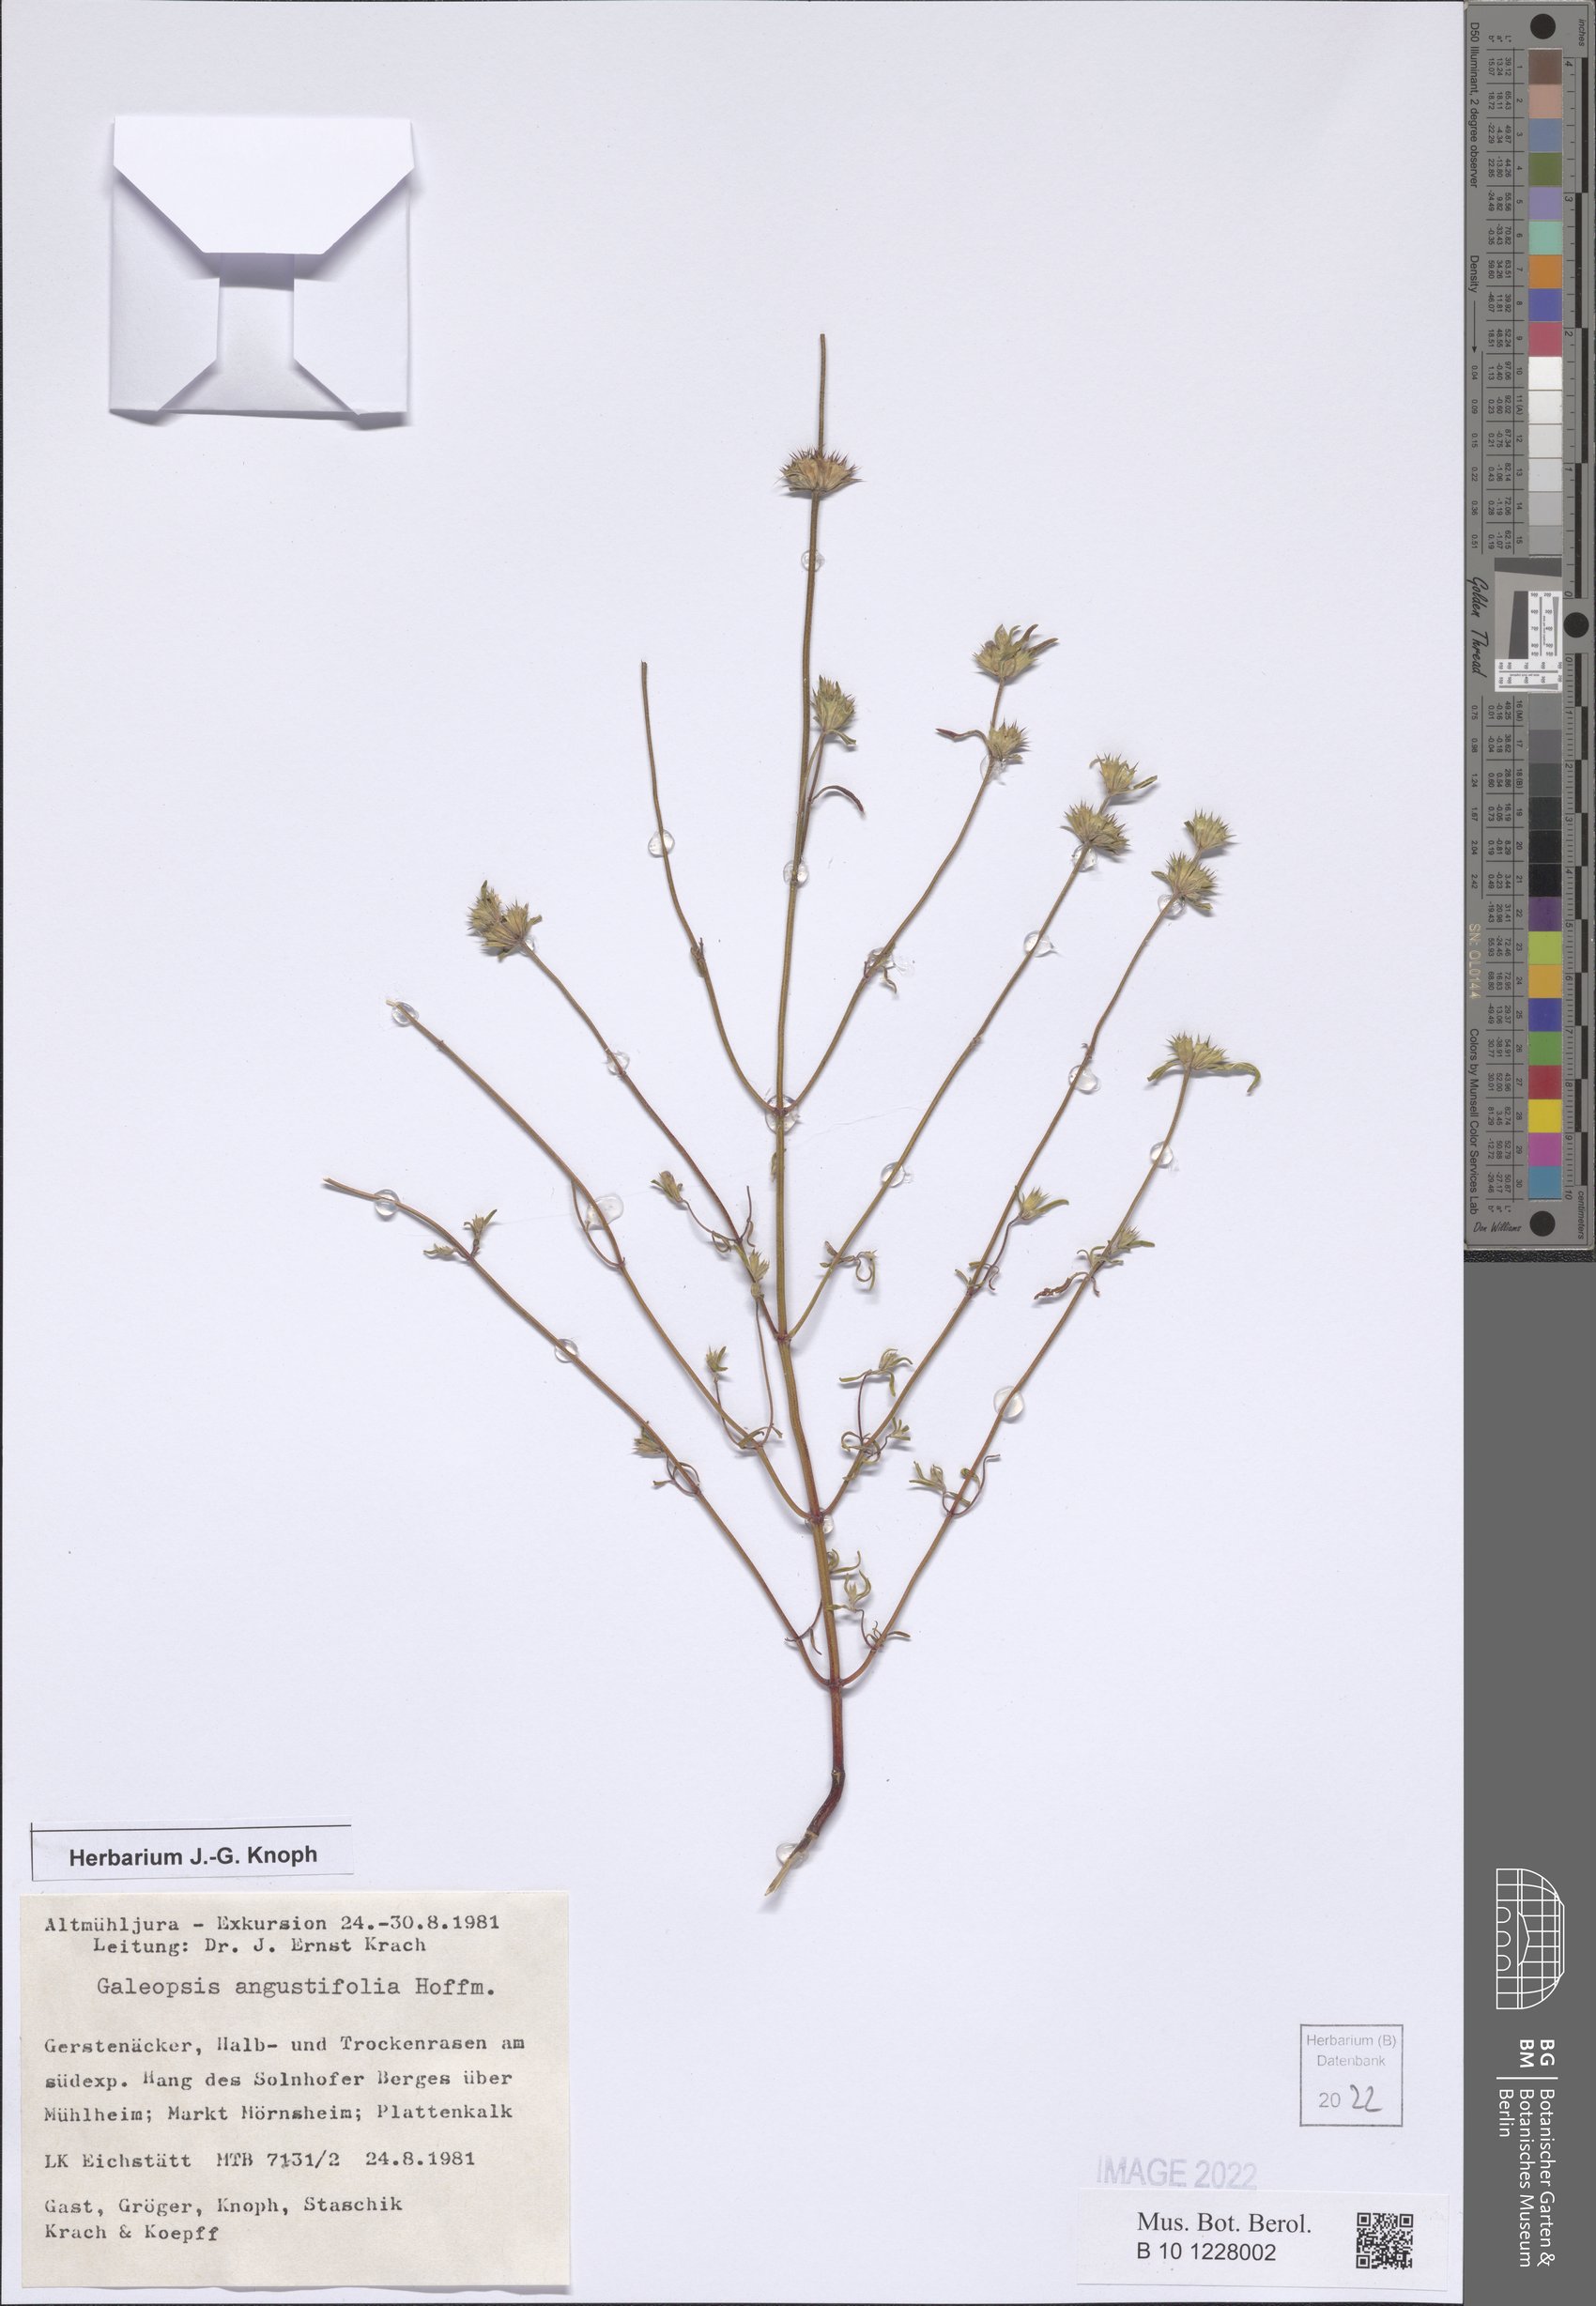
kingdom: Plantae
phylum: Tracheophyta
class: Magnoliopsida
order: Lamiales
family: Lamiaceae
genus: Galeopsis
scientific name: Galeopsis angustifolia
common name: Red hemp-nettle
